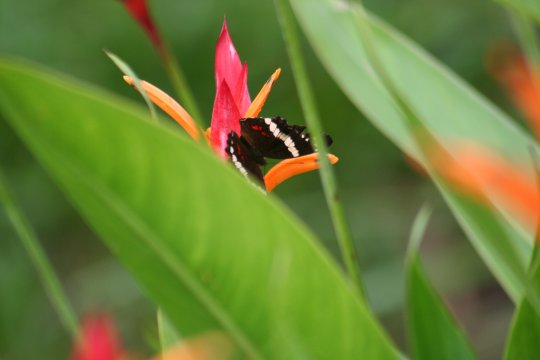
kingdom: Animalia
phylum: Arthropoda
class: Insecta
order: Lepidoptera
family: Nymphalidae
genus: Anartia
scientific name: Anartia fatima
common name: Banded Peacock
